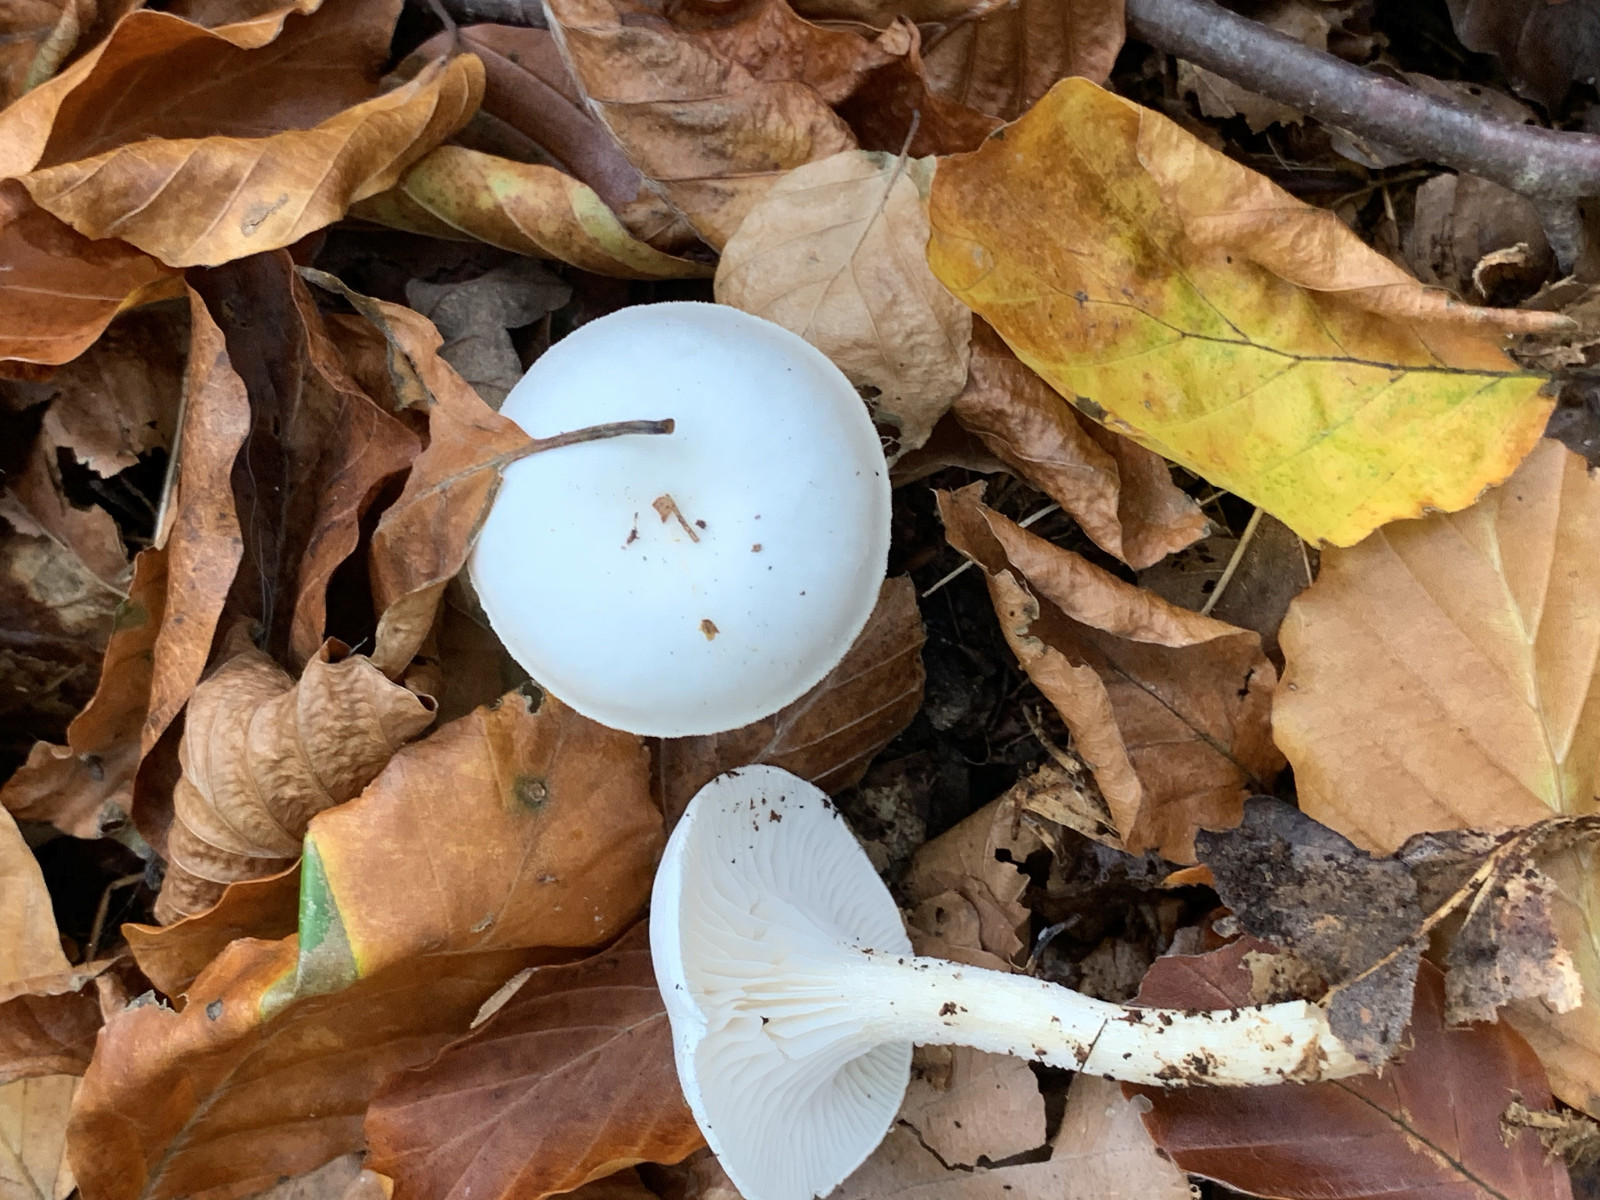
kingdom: Fungi
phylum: Basidiomycota
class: Agaricomycetes
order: Agaricales
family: Hygrophoraceae
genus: Hygrophorus
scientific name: Hygrophorus eburneus
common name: elfenbens-sneglehat
